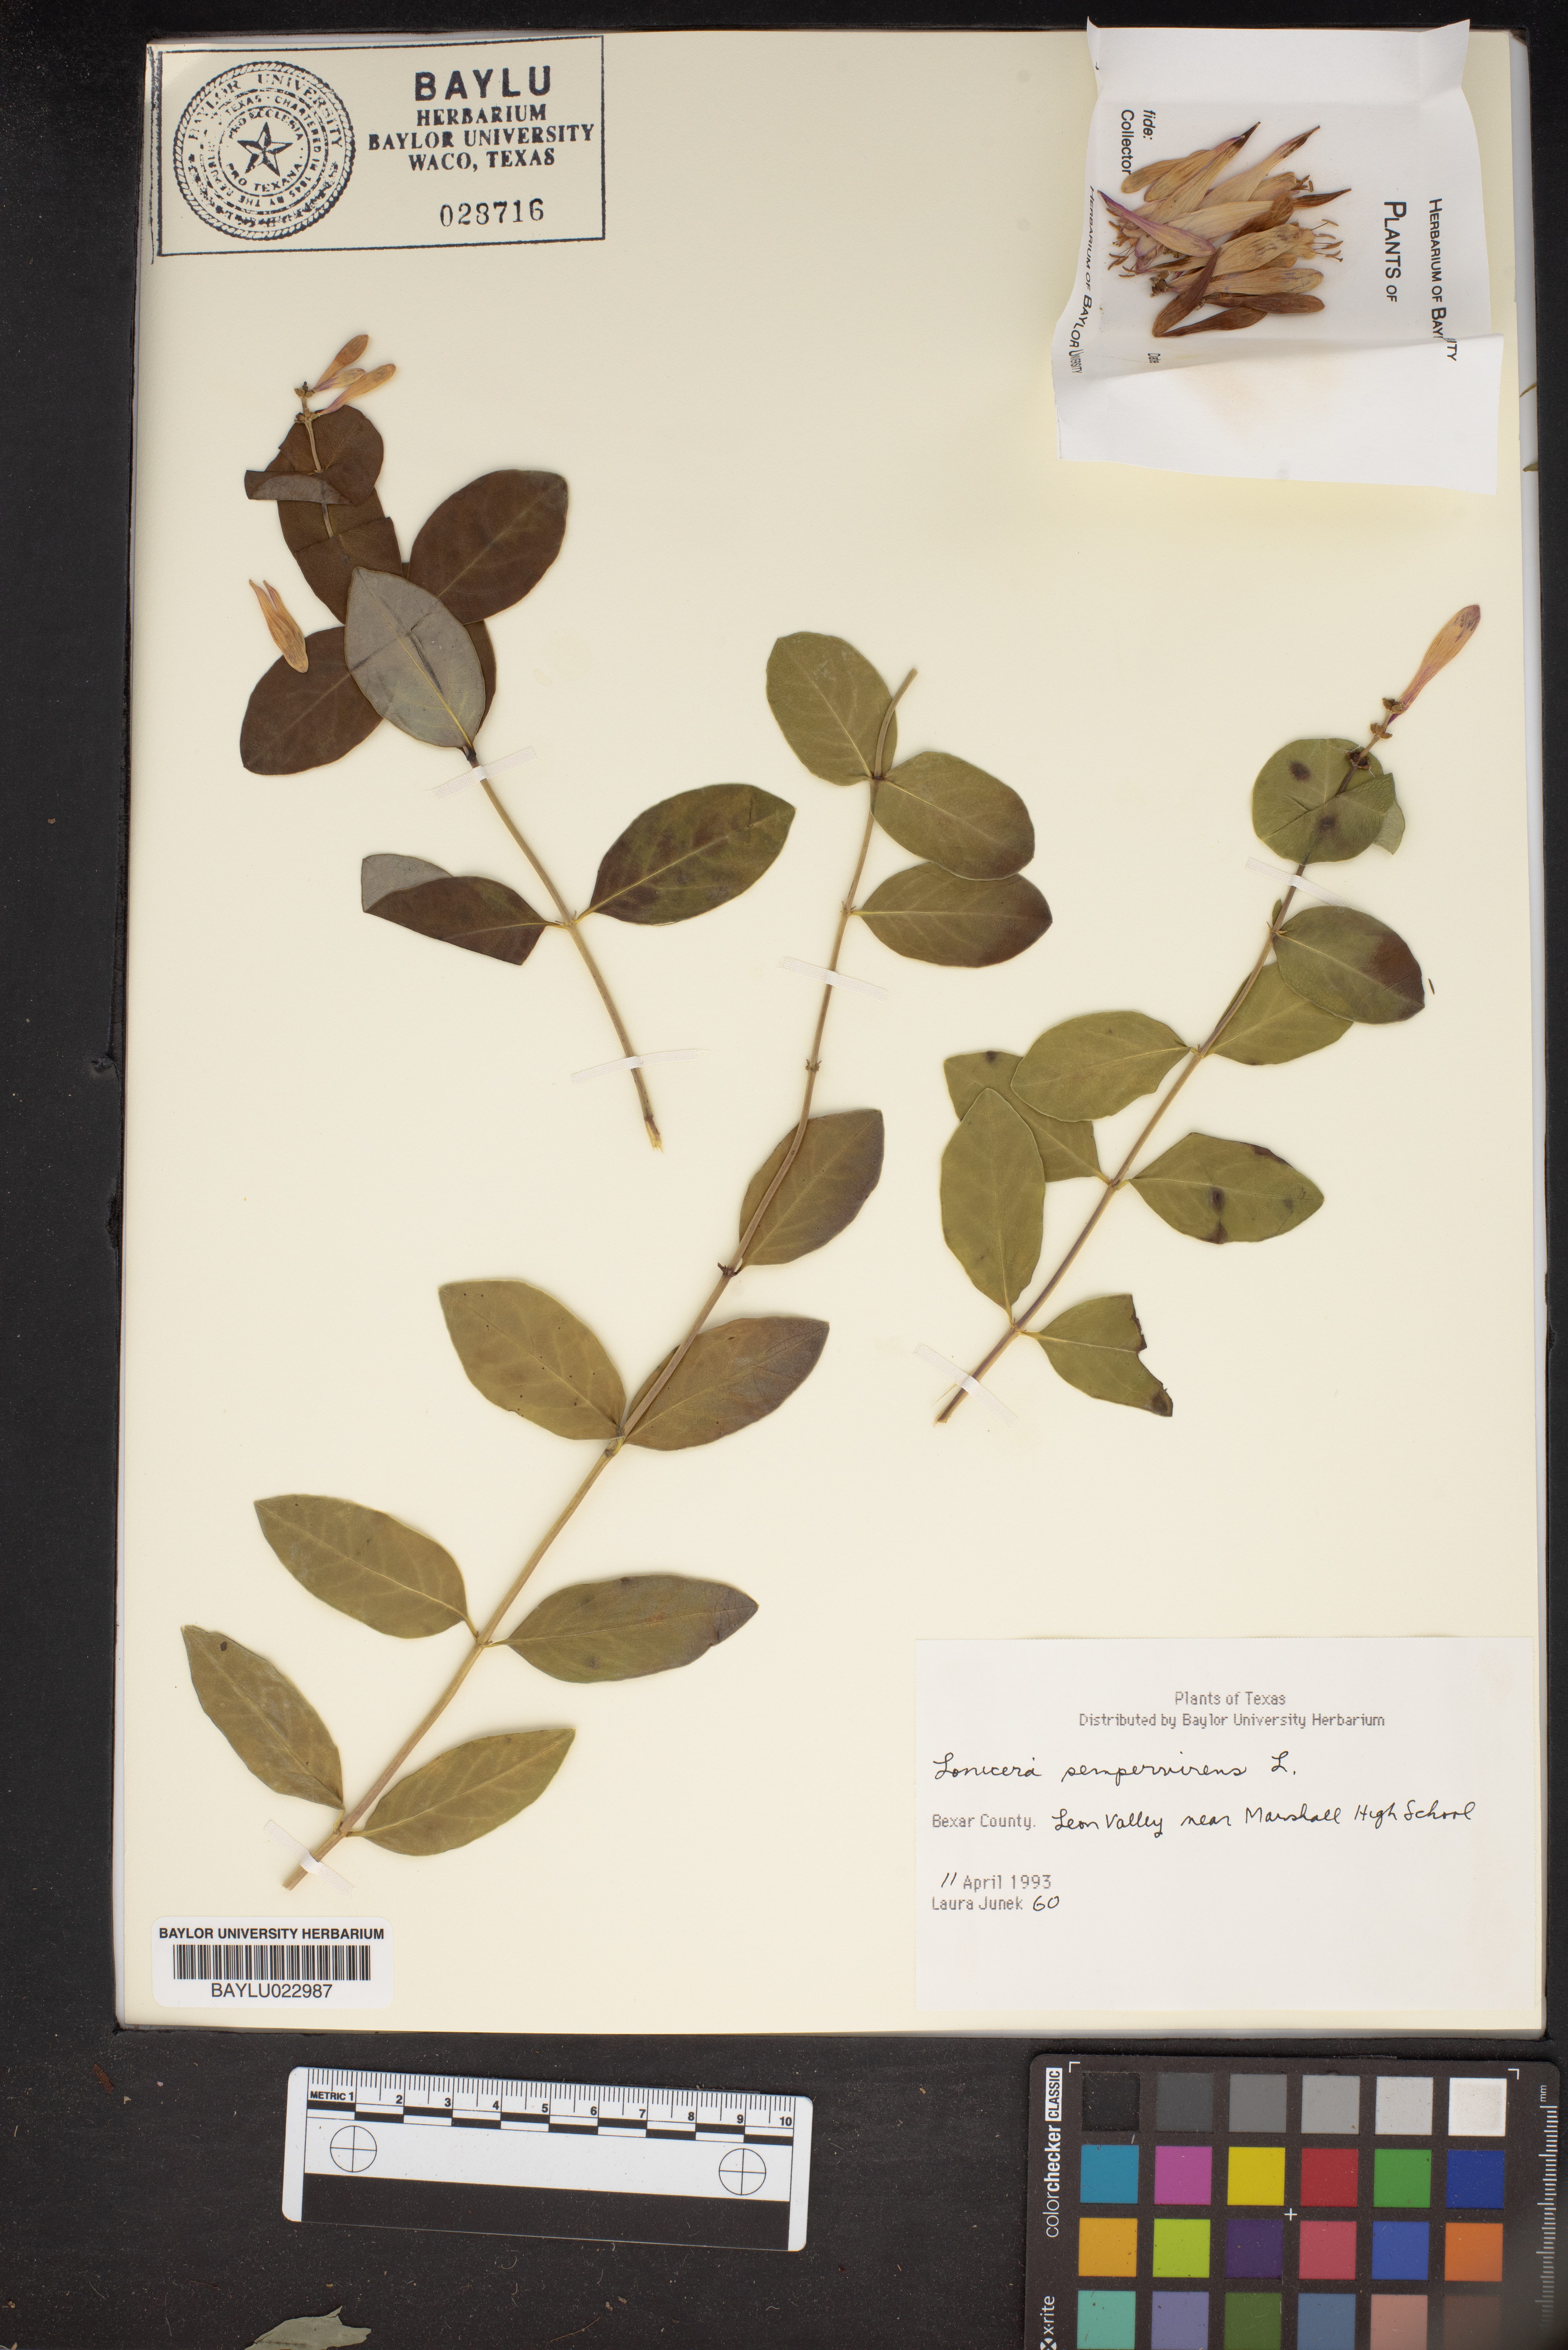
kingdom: Plantae
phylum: Tracheophyta
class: Magnoliopsida
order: Dipsacales
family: Caprifoliaceae
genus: Lonicera
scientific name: Lonicera sempervirens
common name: Coral honeysuckle
